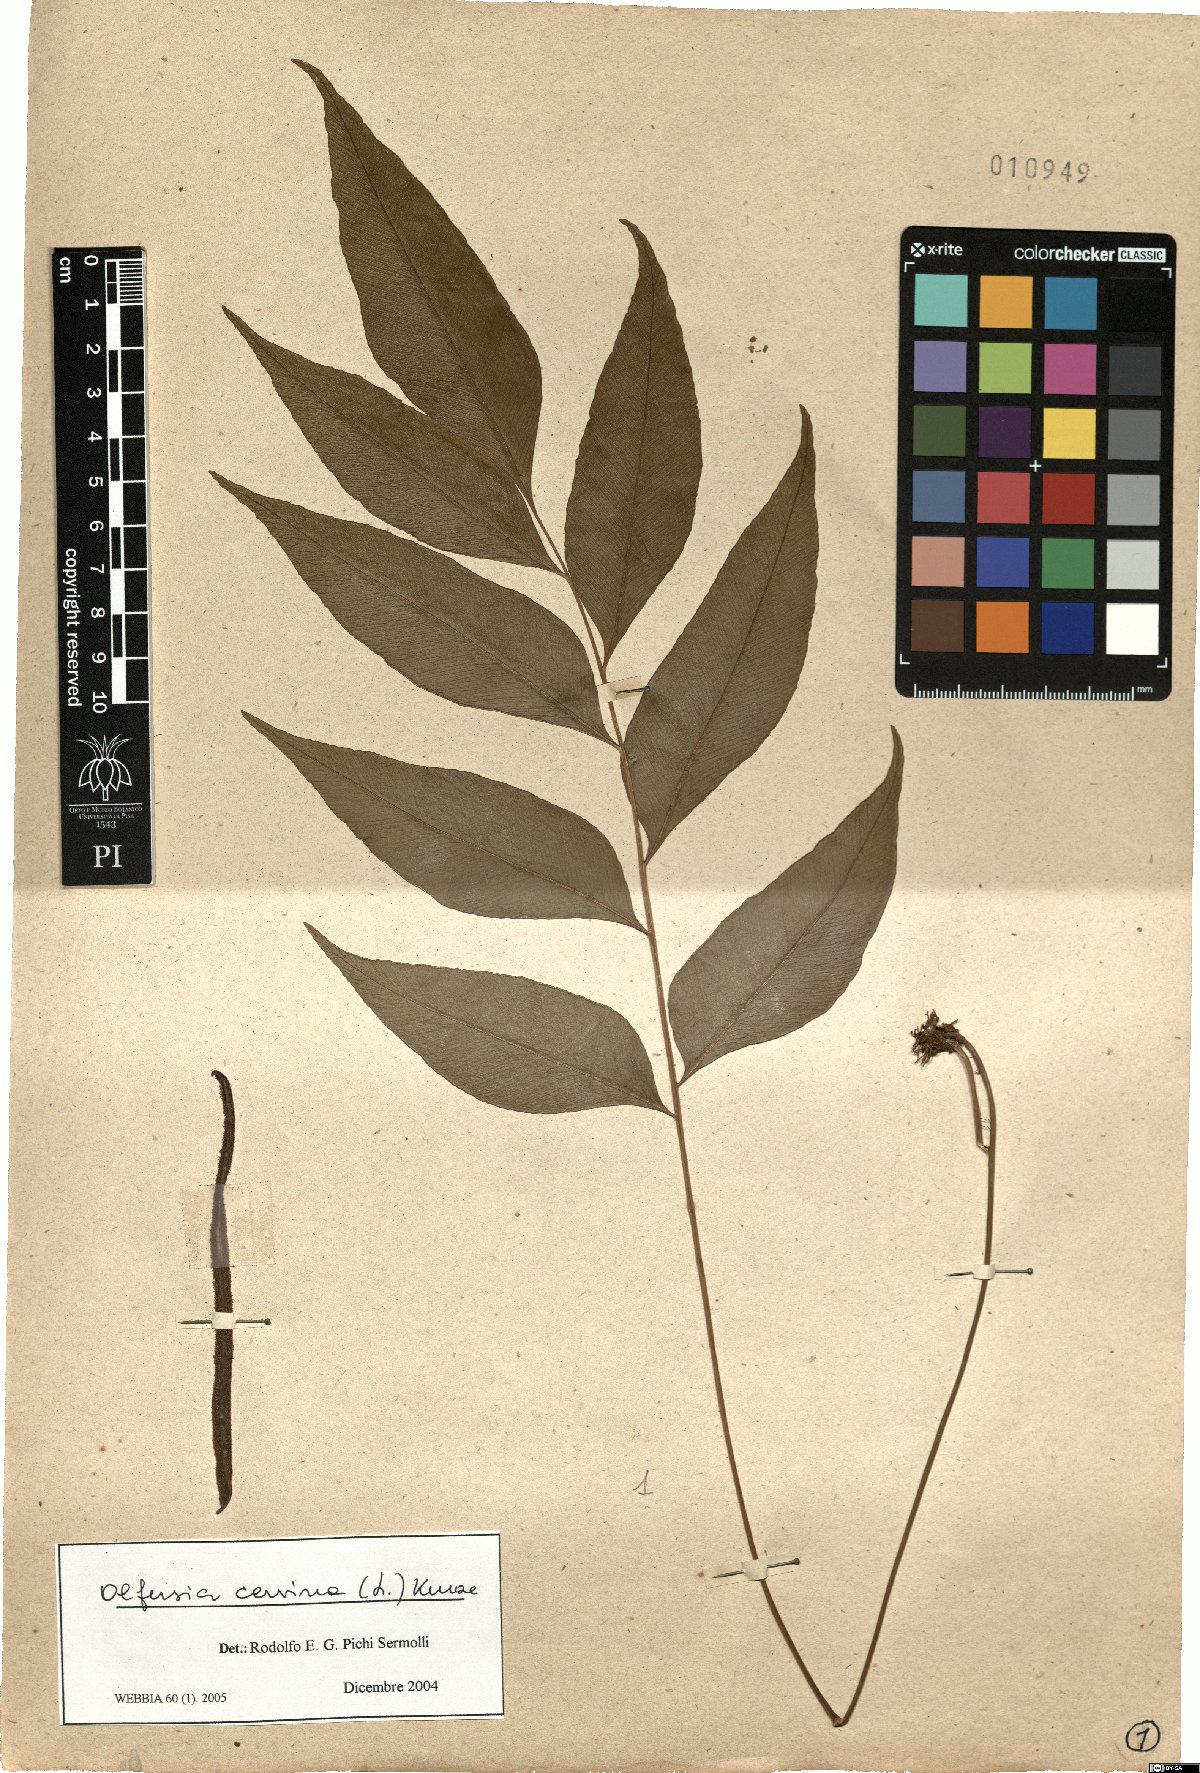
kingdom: Plantae
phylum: Tracheophyta
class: Polypodiopsida
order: Polypodiales
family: Dryopteridaceae
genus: Olfersia
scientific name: Olfersia cervina
